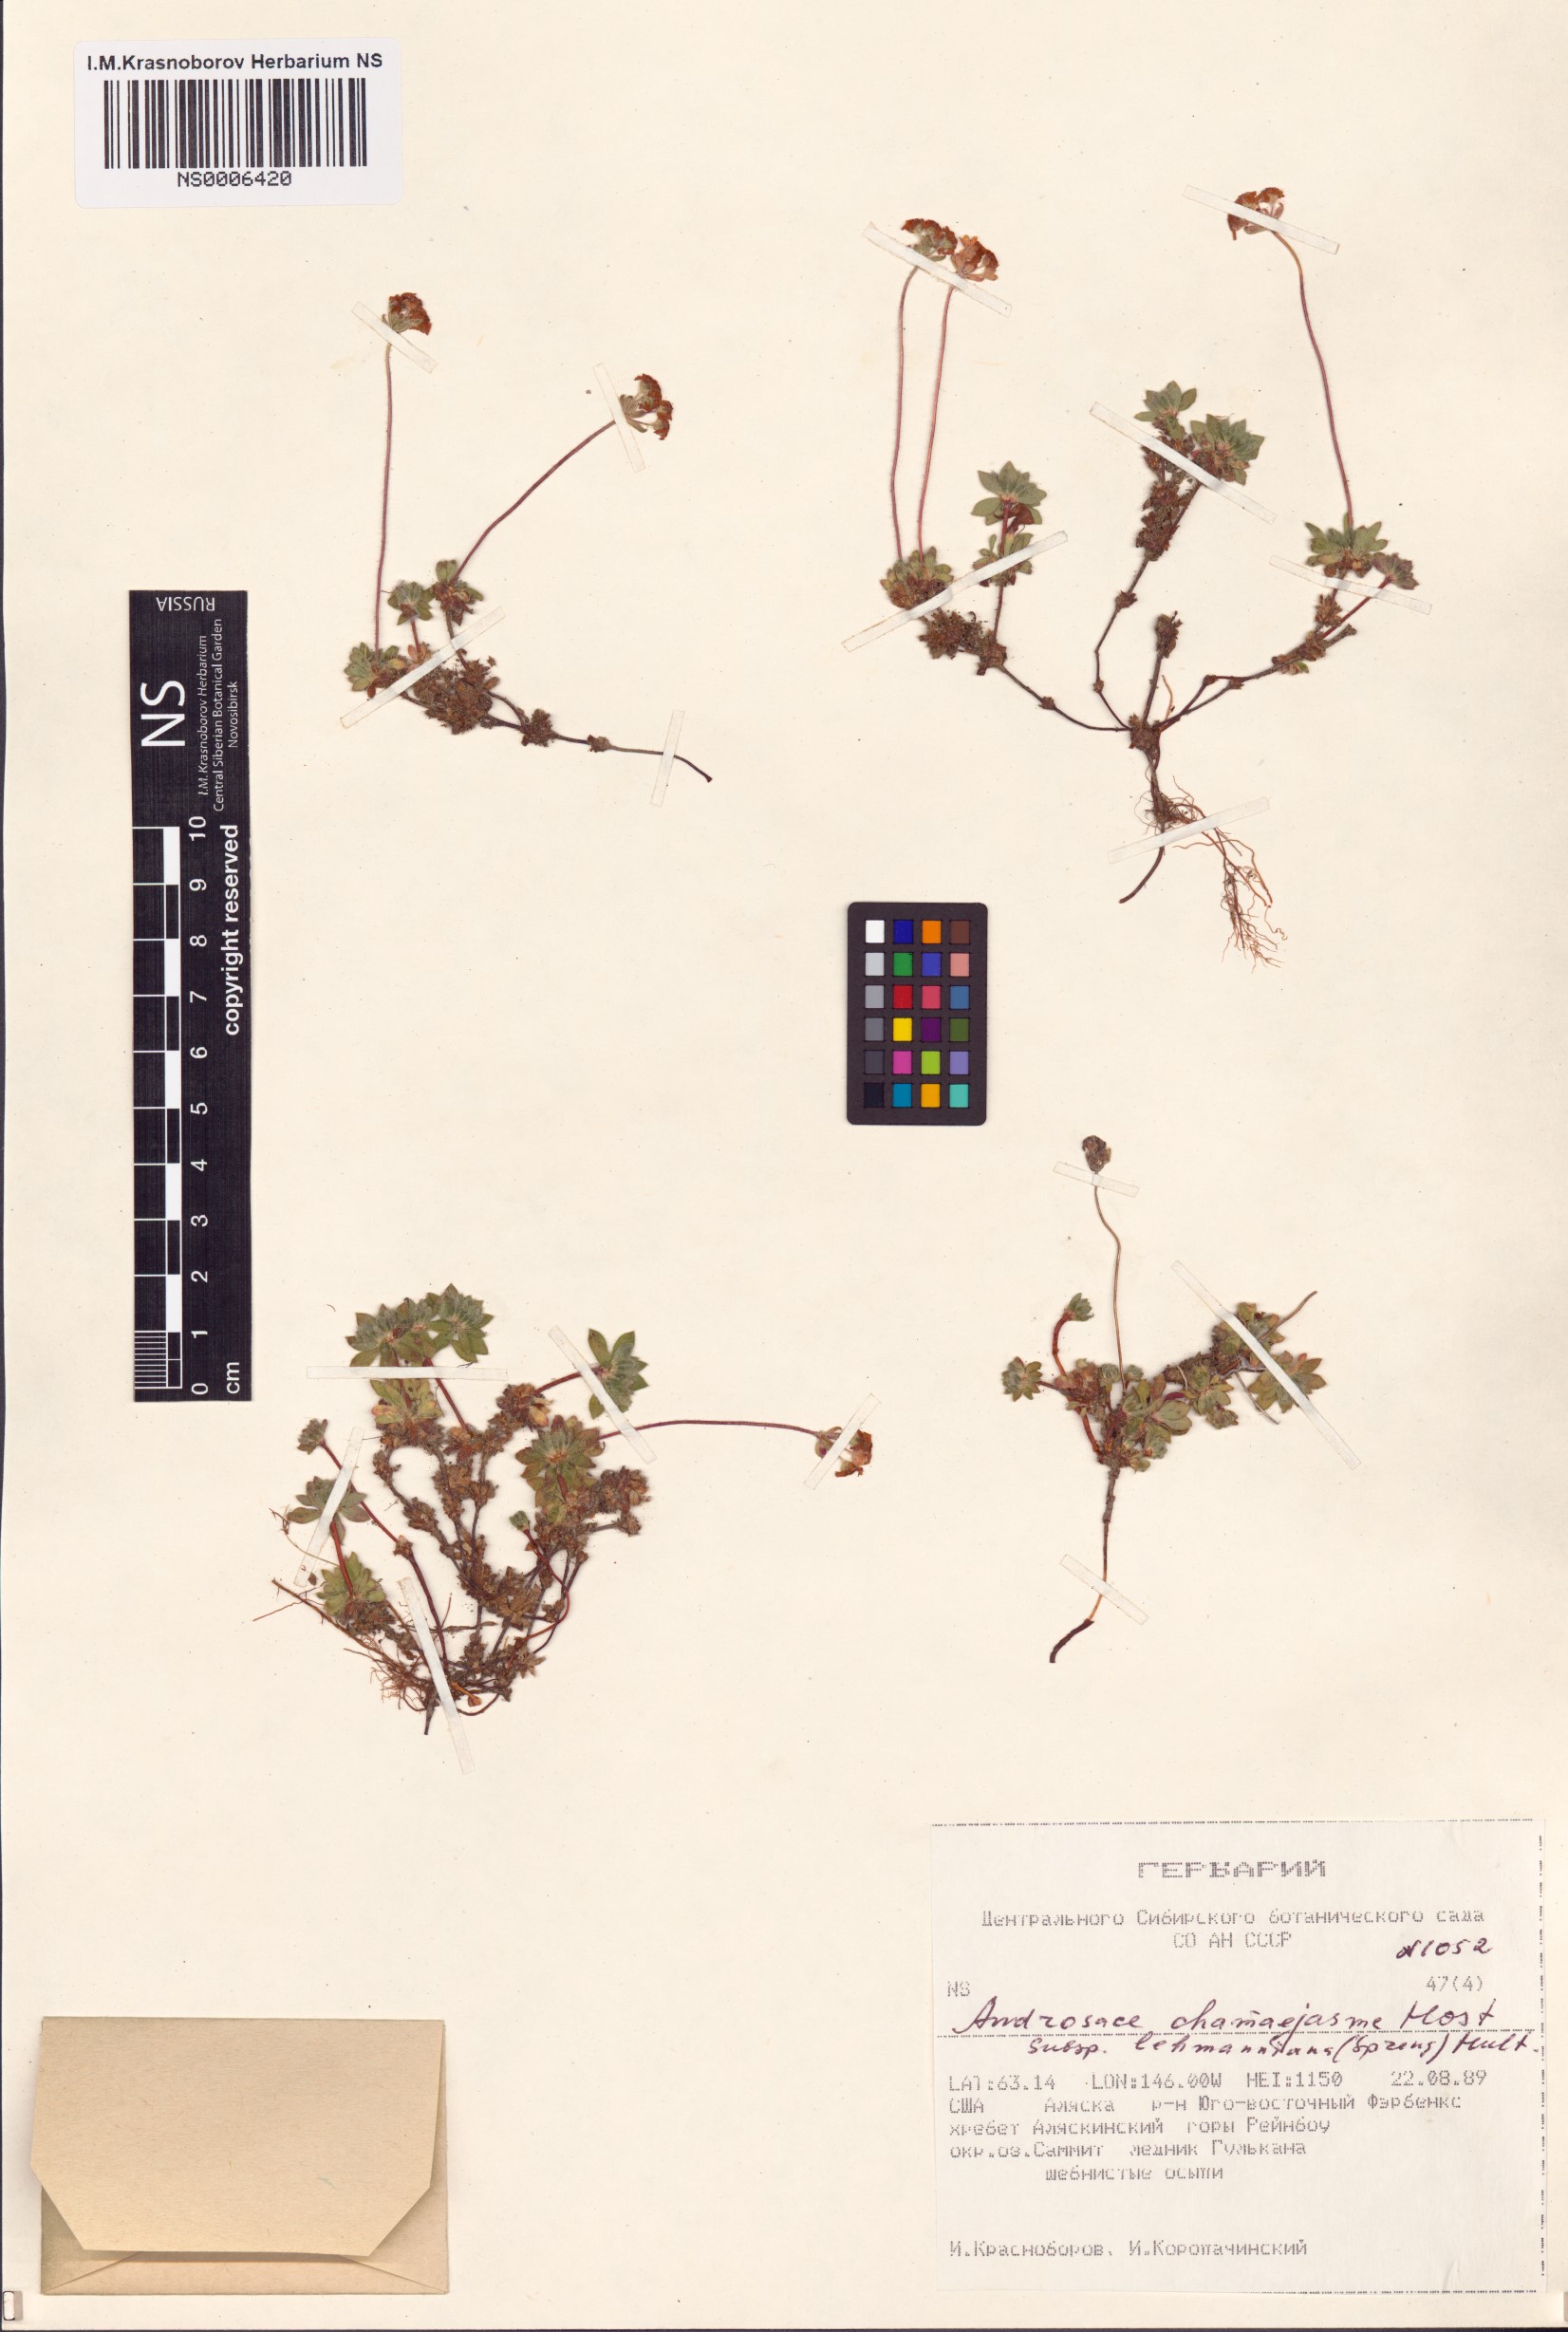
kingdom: Plantae
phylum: Tracheophyta
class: Magnoliopsida
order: Ericales
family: Primulaceae
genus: Androsace
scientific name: Androsace chamaejasme
